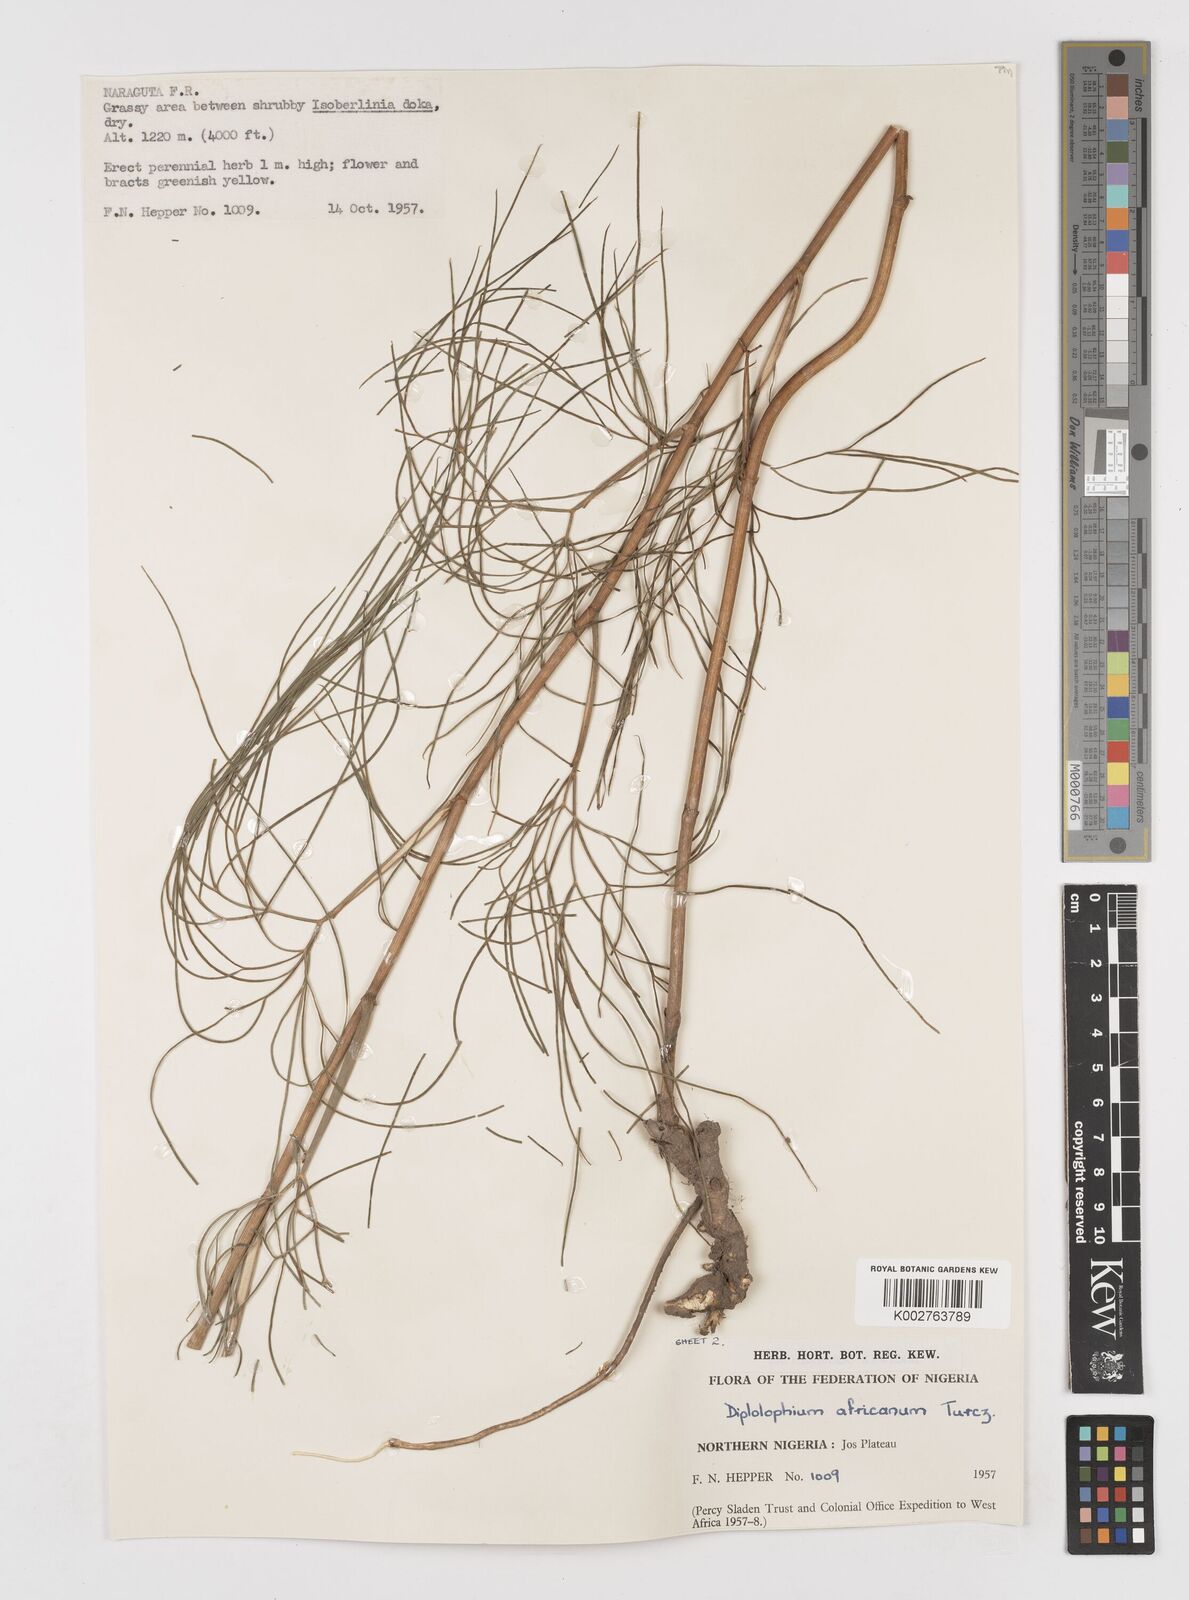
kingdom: Plantae
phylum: Tracheophyta
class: Magnoliopsida
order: Apiales
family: Apiaceae
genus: Diplolophium
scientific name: Diplolophium africanum
